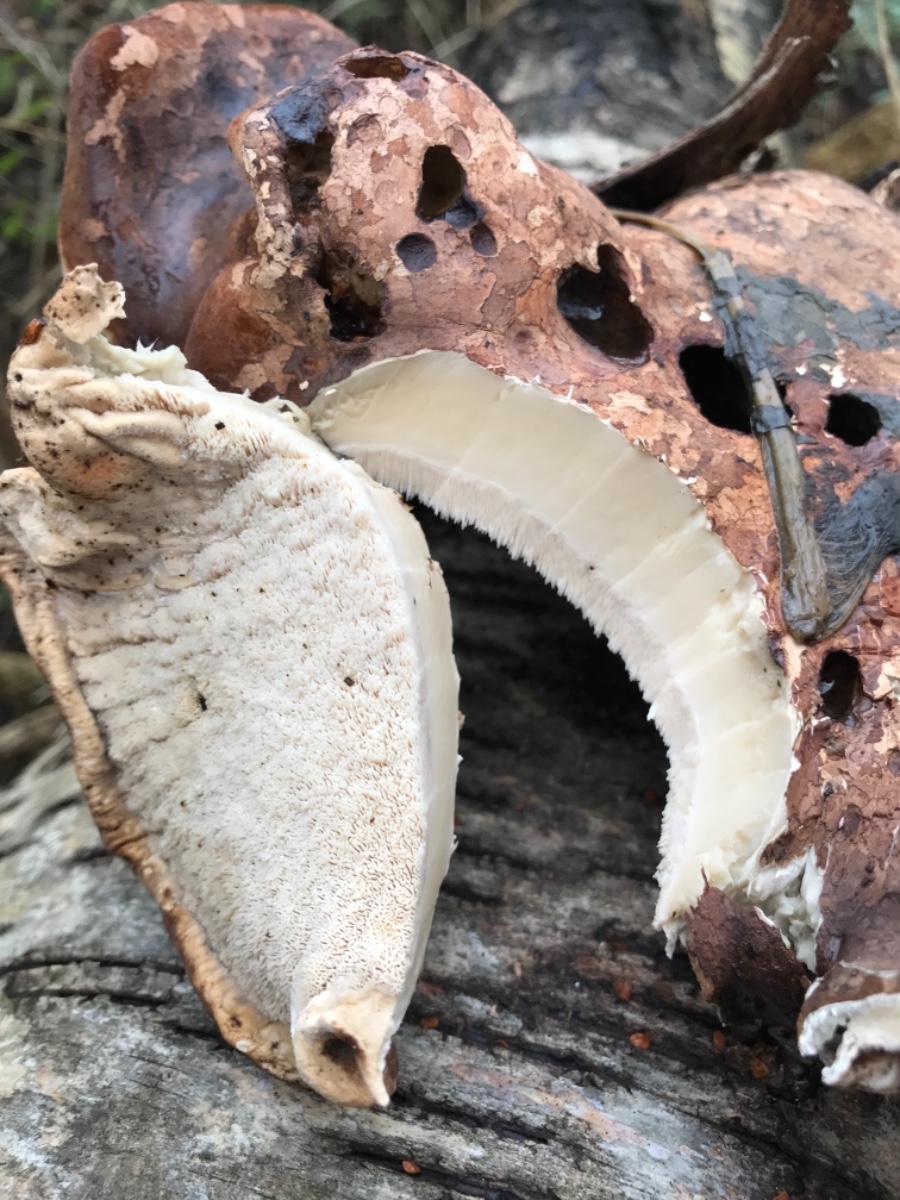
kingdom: Fungi
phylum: Basidiomycota
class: Agaricomycetes
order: Polyporales
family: Fomitopsidaceae
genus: Fomitopsis
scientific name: Fomitopsis betulina
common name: birkeporesvamp
